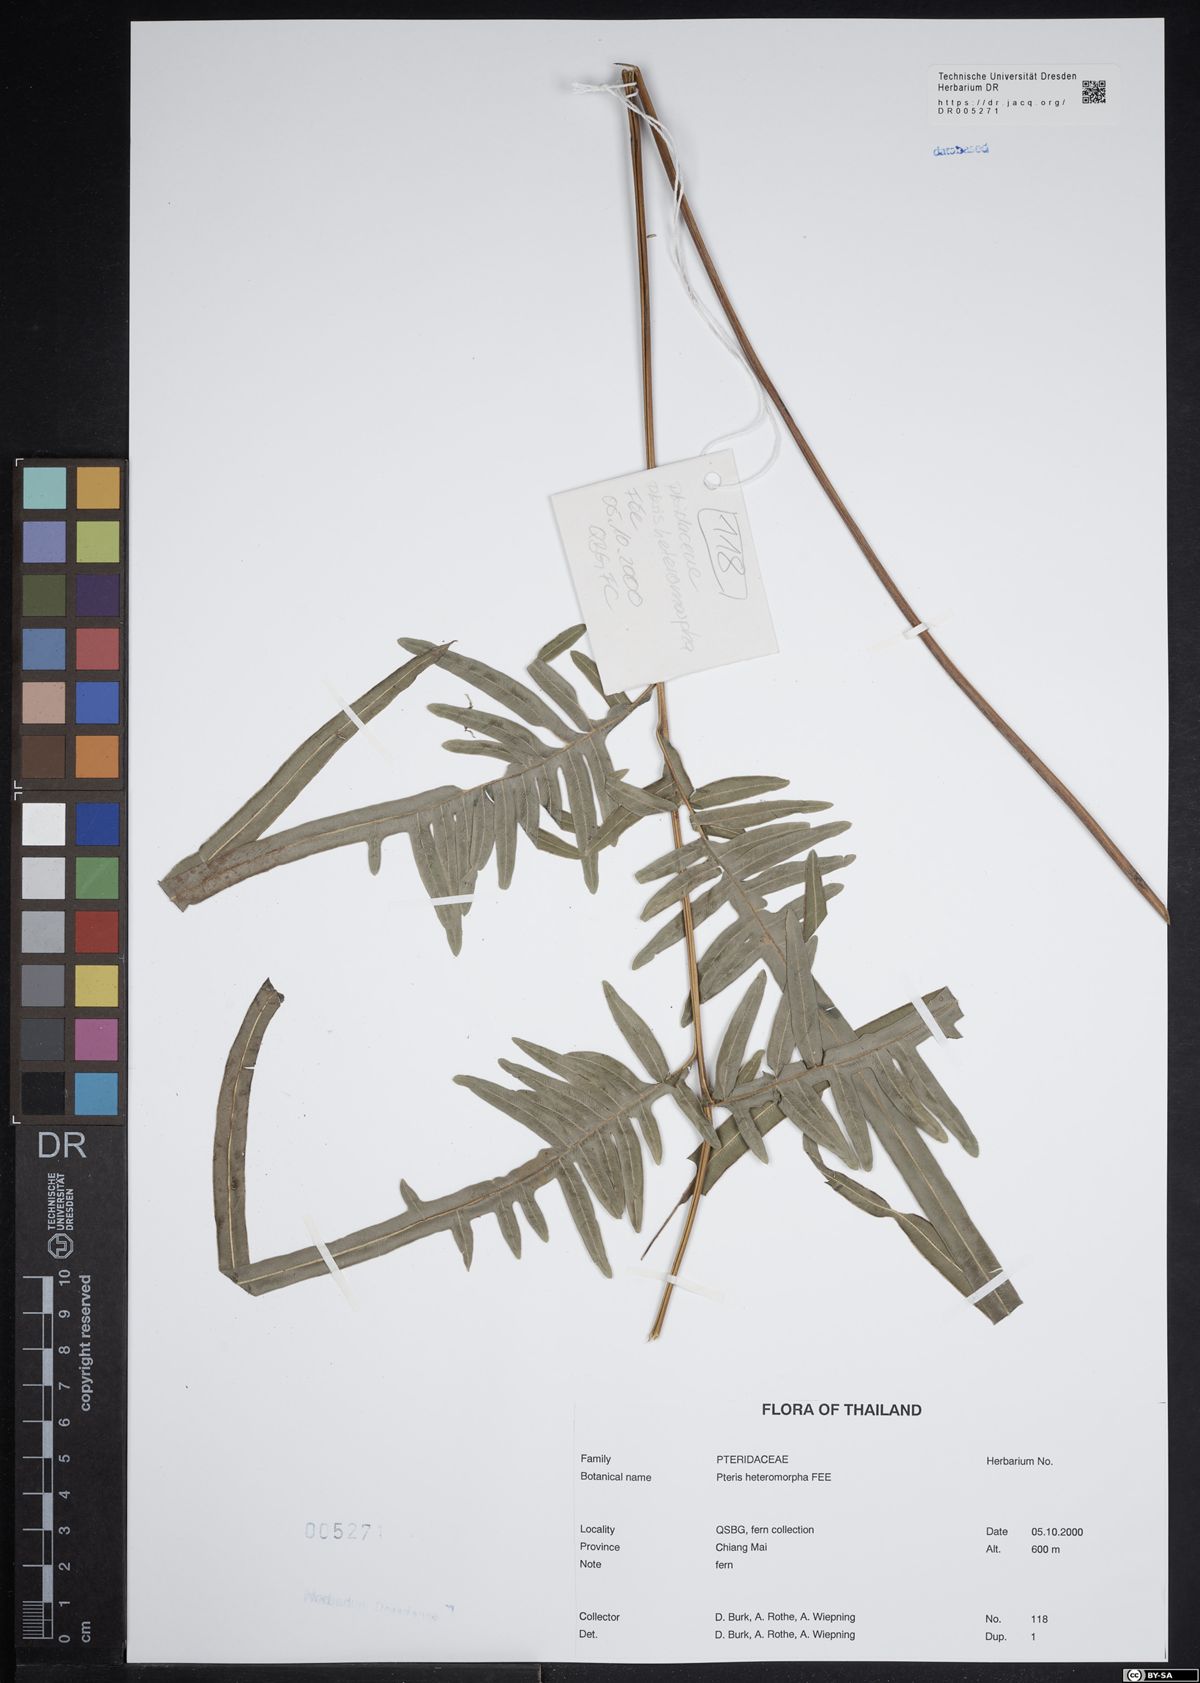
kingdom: Plantae
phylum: Tracheophyta
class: Polypodiopsida
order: Polypodiales
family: Pteridaceae
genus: Pteris
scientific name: Pteris heteromorpha
